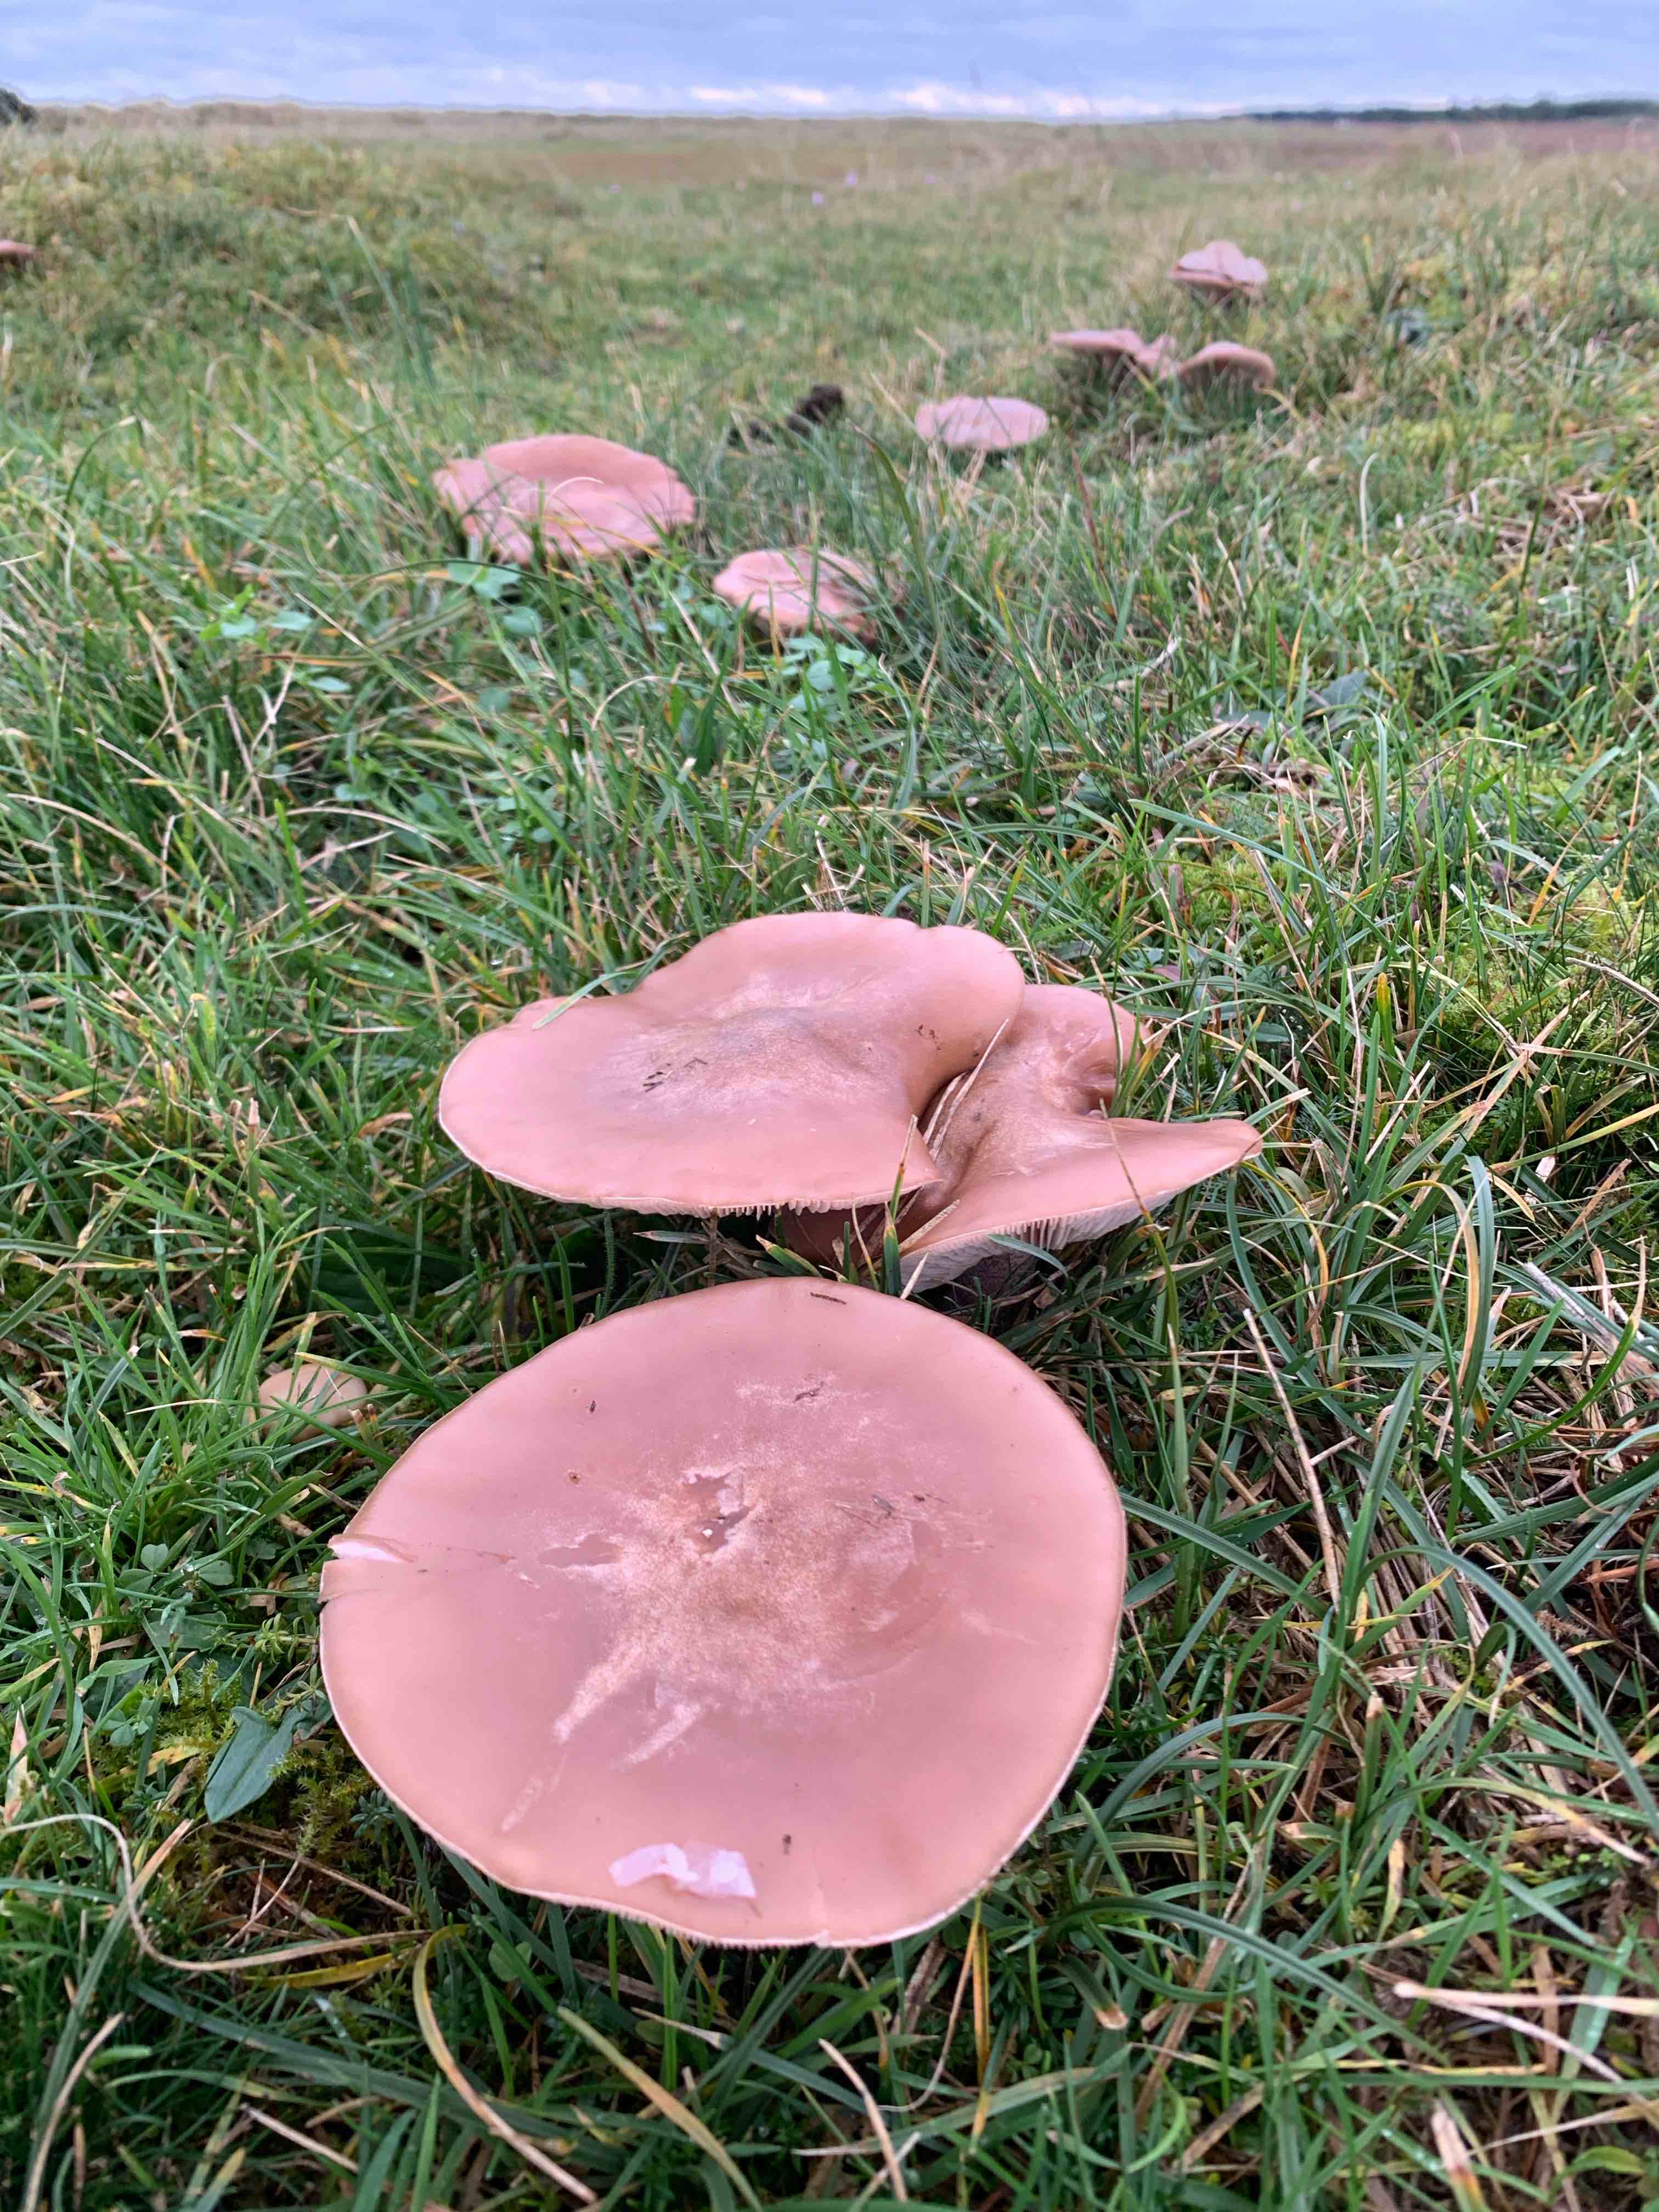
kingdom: Fungi
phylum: Basidiomycota
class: Agaricomycetes
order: Agaricales
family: Tricholomataceae
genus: Lepista
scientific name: Lepista nuda
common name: violet hekseringshat
